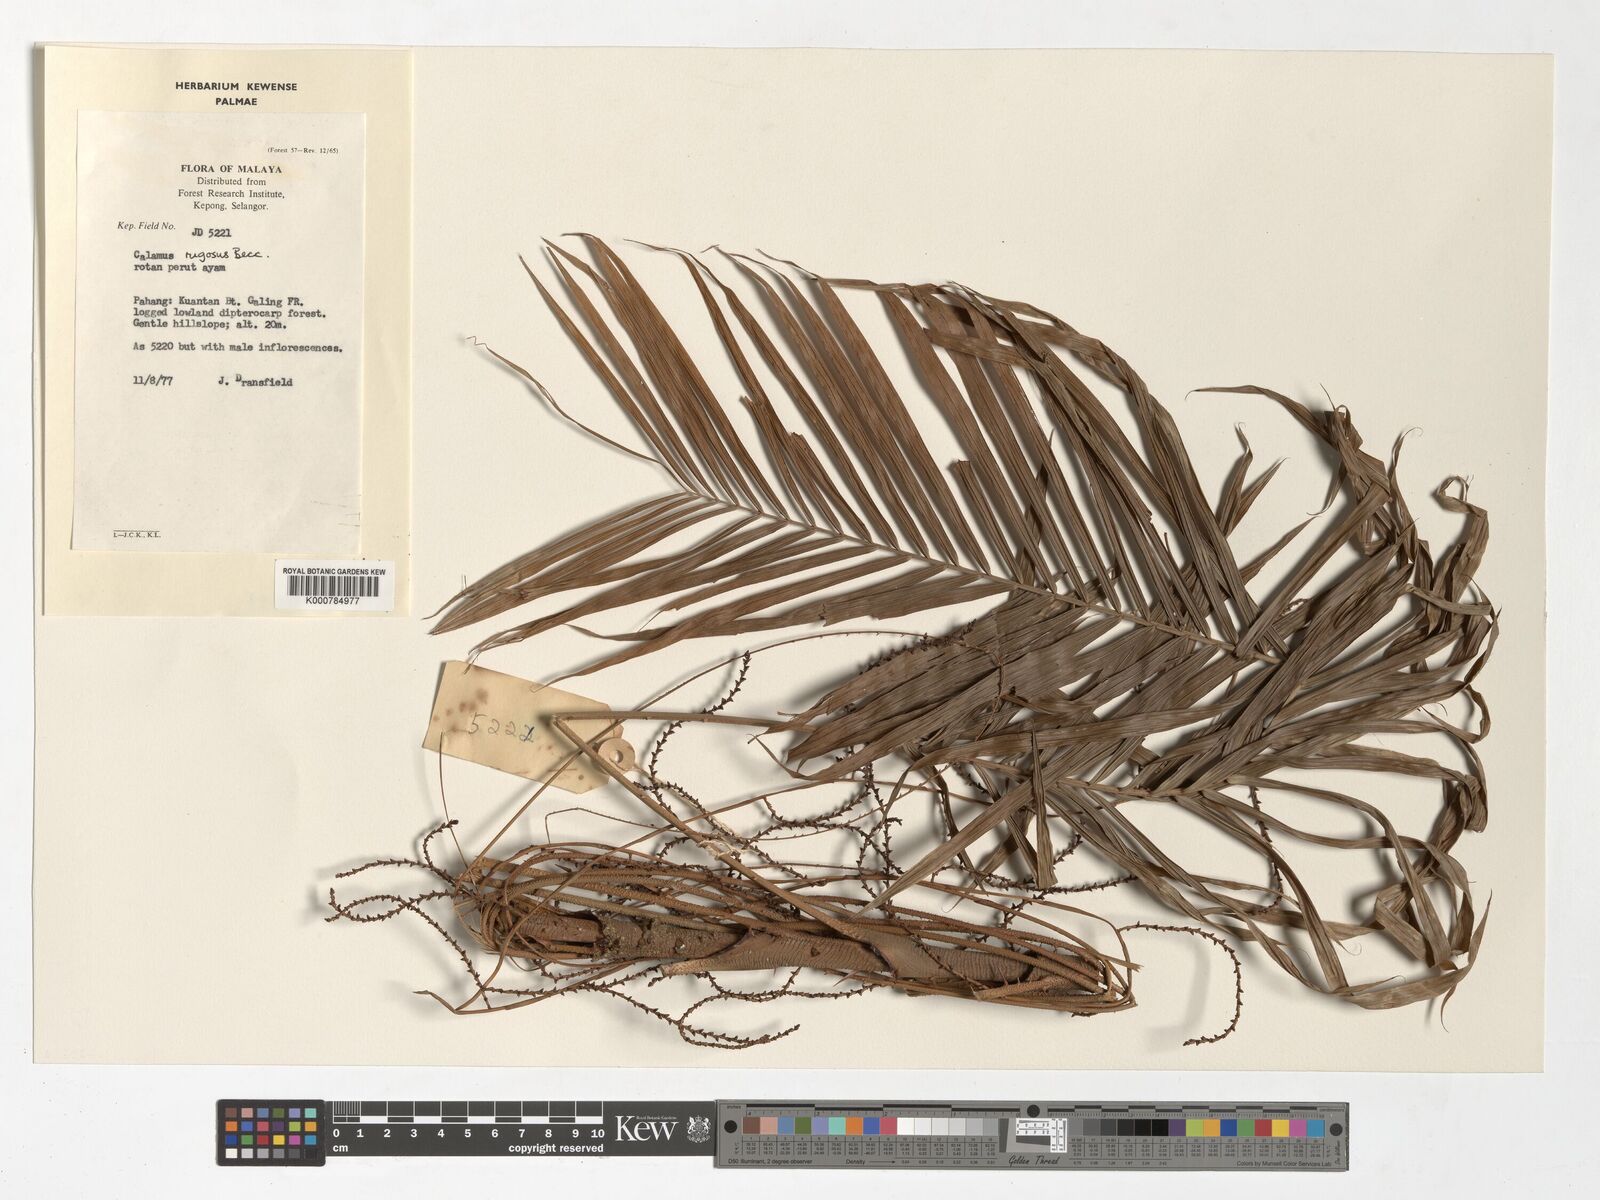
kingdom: Plantae
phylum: Tracheophyta
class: Liliopsida
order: Arecales
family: Arecaceae
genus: Calamus
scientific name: Calamus rugosus
